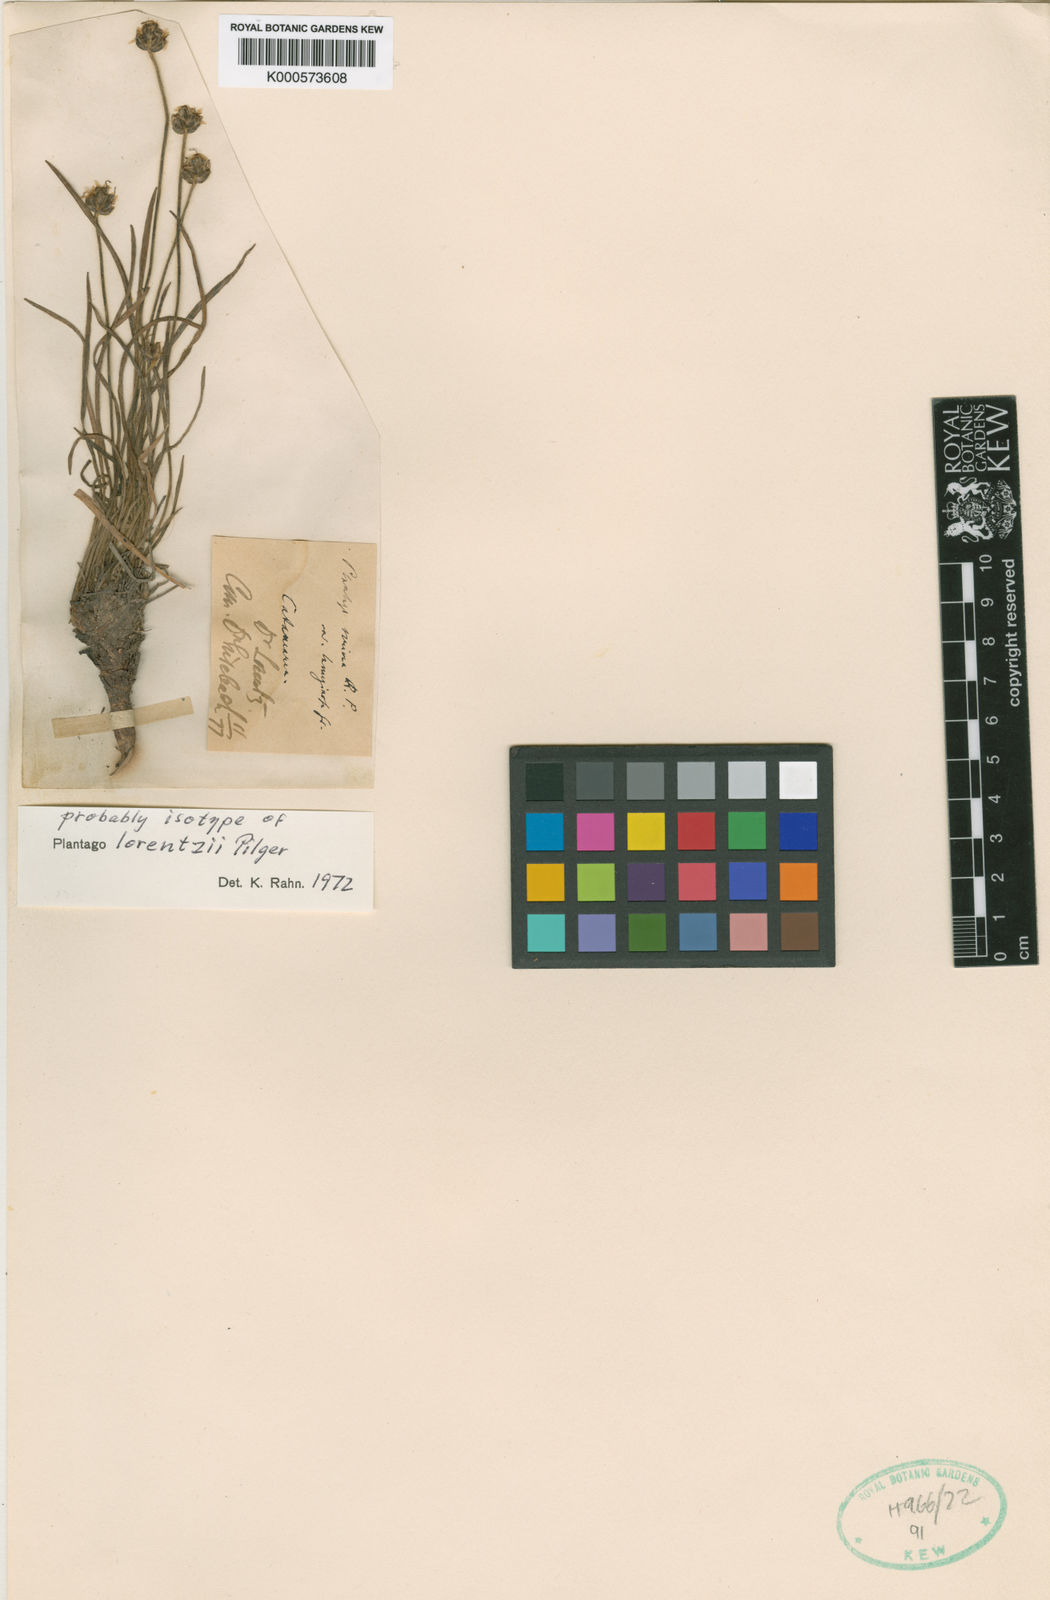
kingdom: Plantae
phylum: Tracheophyta
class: Magnoliopsida
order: Lamiales
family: Plantaginaceae
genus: Plantago
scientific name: Plantago sericea
